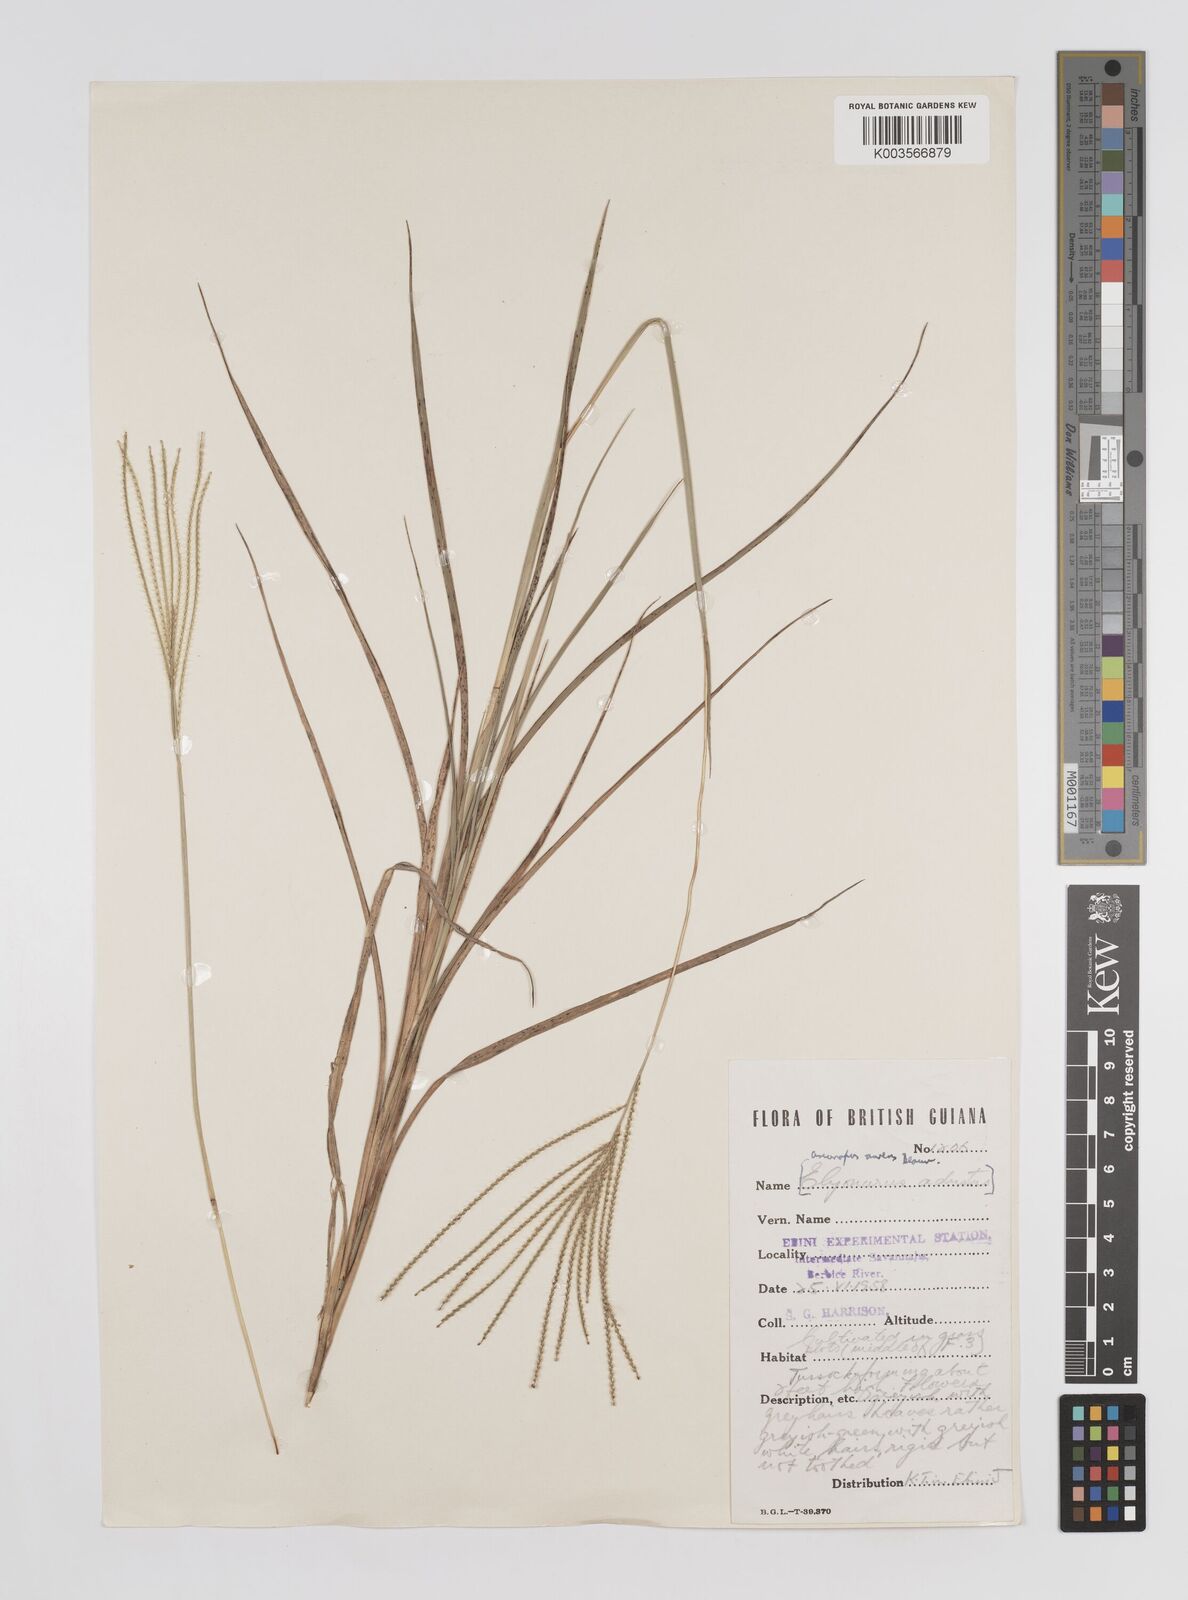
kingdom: Plantae
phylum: Tracheophyta
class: Liliopsida
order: Poales
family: Poaceae
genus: Axonopus
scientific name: Axonopus aureus
